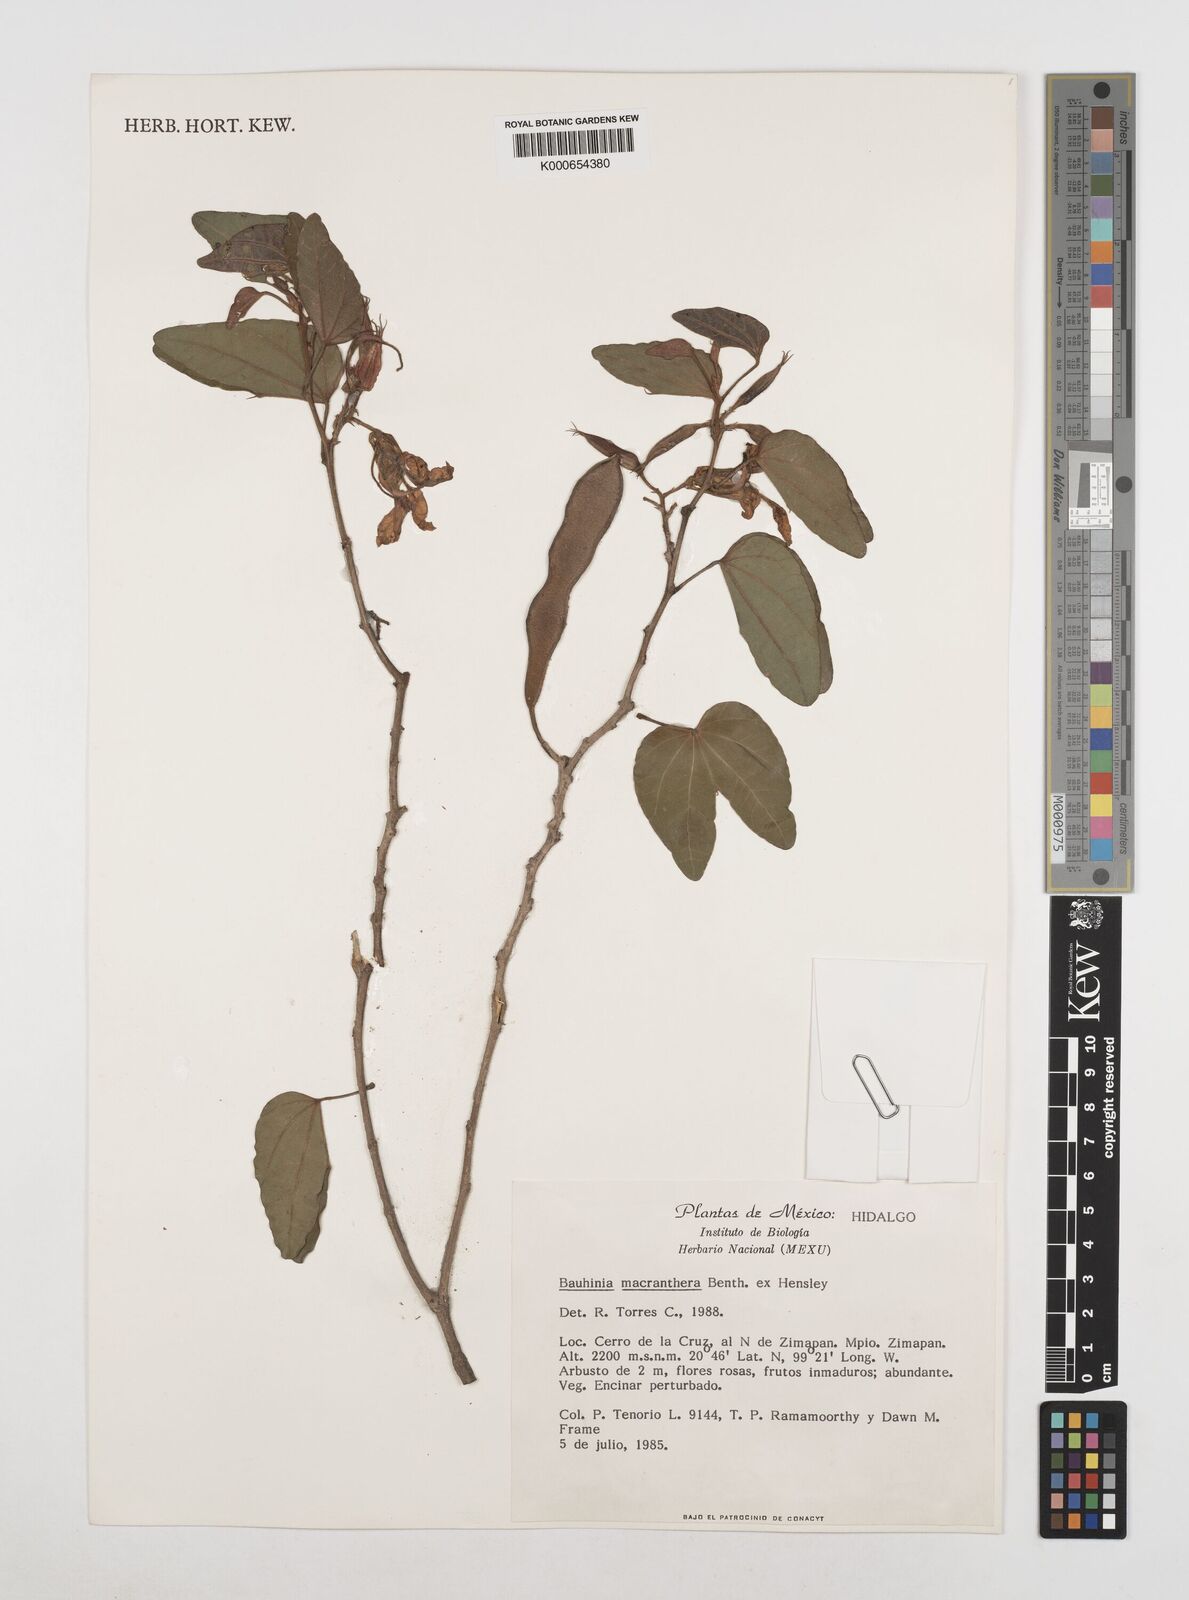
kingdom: Plantae
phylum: Tracheophyta
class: Magnoliopsida
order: Fabales
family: Fabaceae
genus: Bauhinia
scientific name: Bauhinia macranthera
